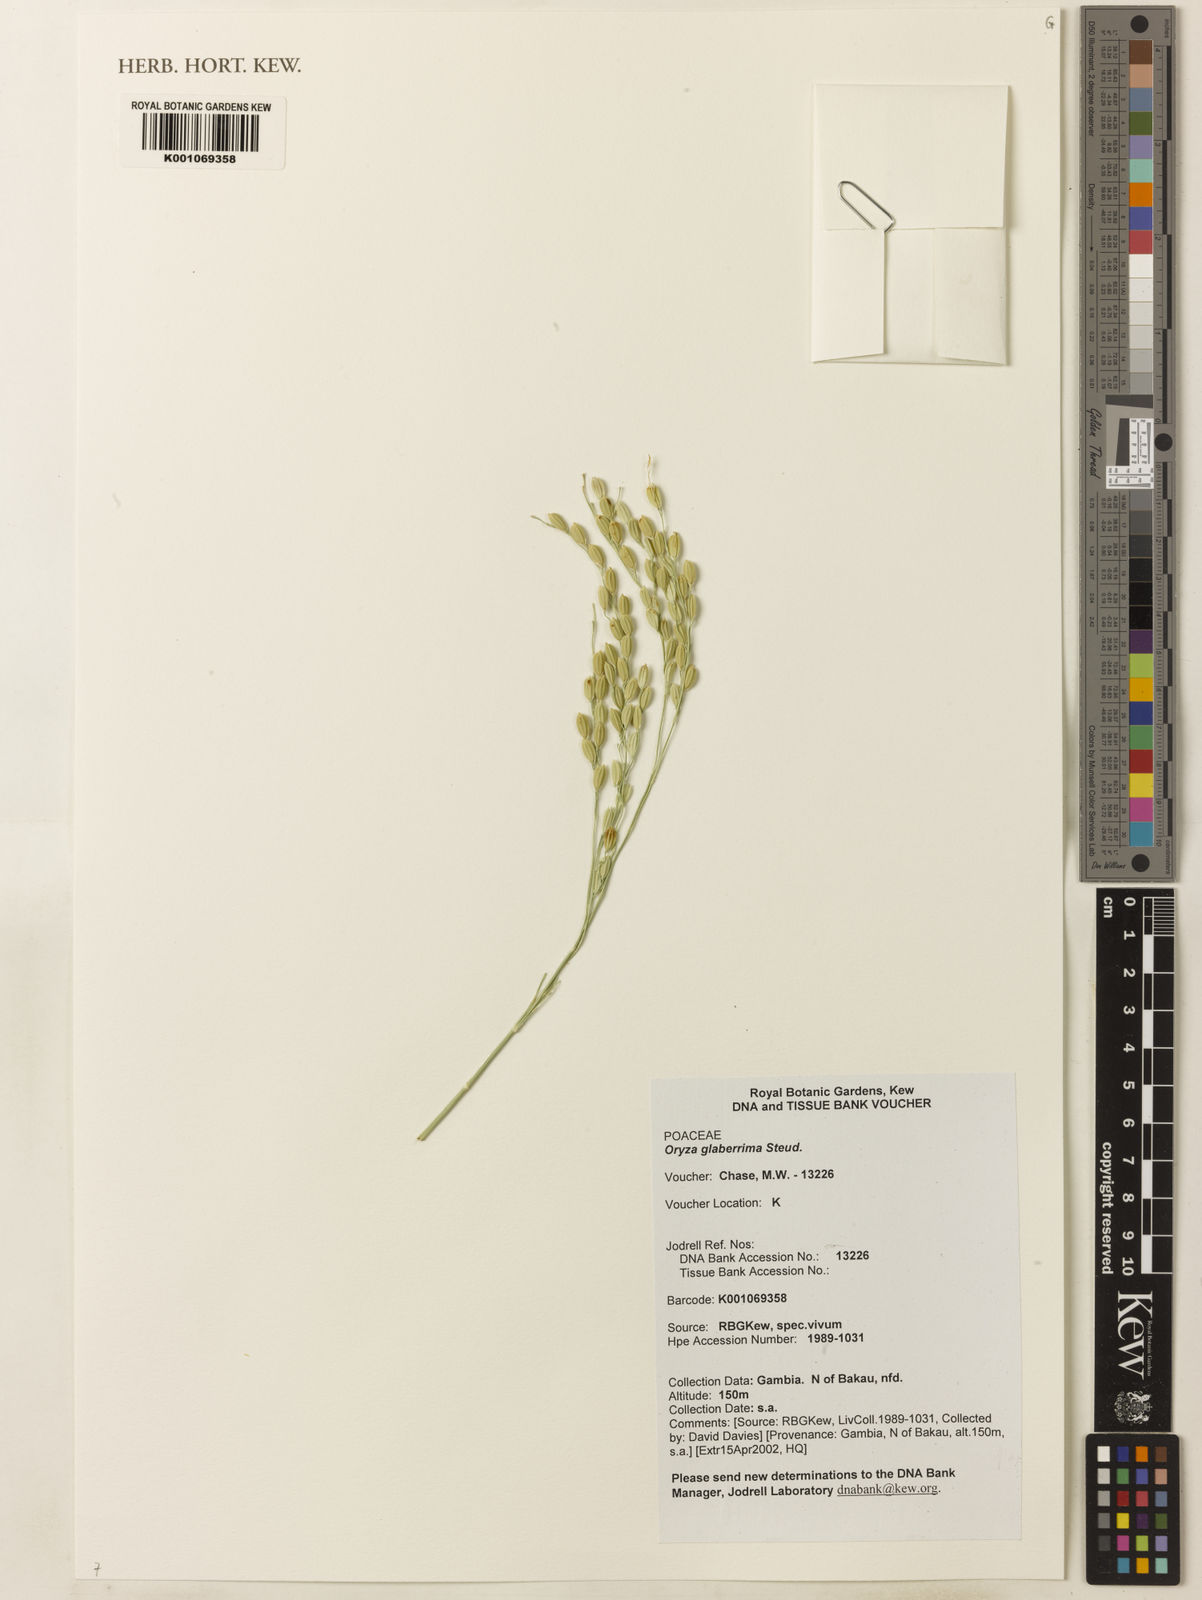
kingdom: Plantae
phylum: Tracheophyta
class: Liliopsida
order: Poales
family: Poaceae
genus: Oryza
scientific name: Oryza glaberrima
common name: African rice
